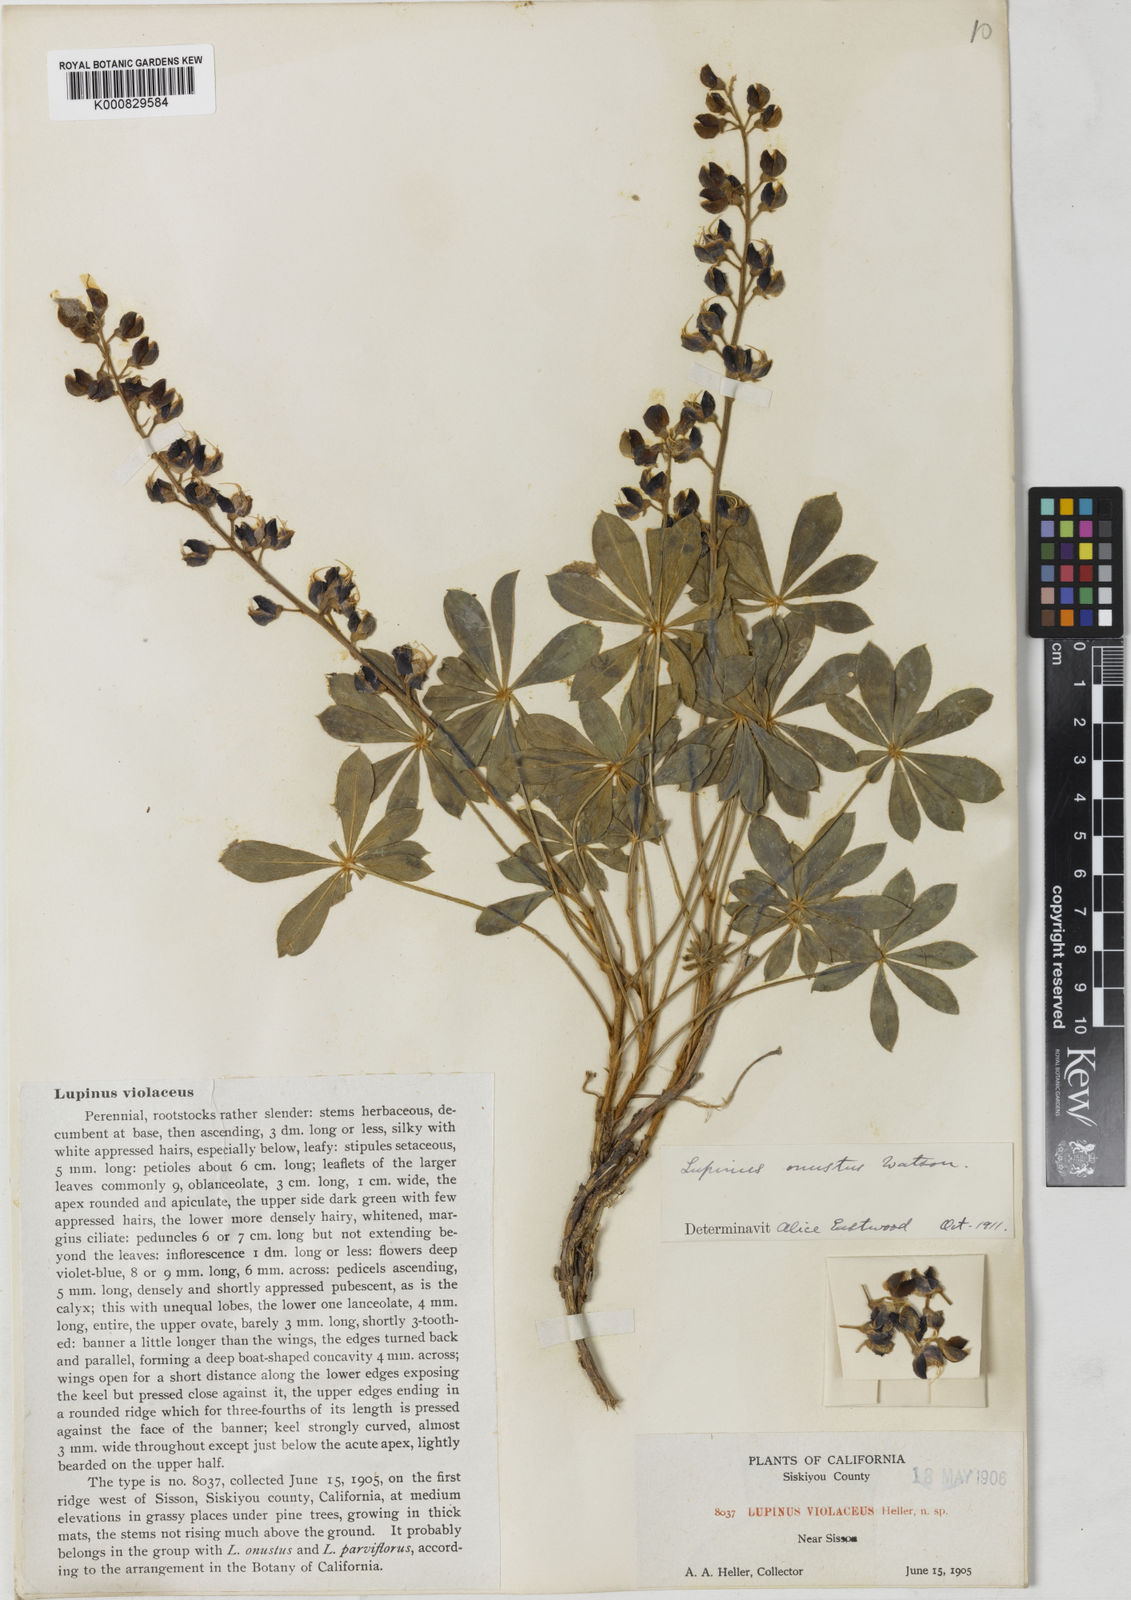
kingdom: Plantae
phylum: Tracheophyta
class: Magnoliopsida
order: Fabales
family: Fabaceae
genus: Lupinus
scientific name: Lupinus onustus
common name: Yellow pine lupine
